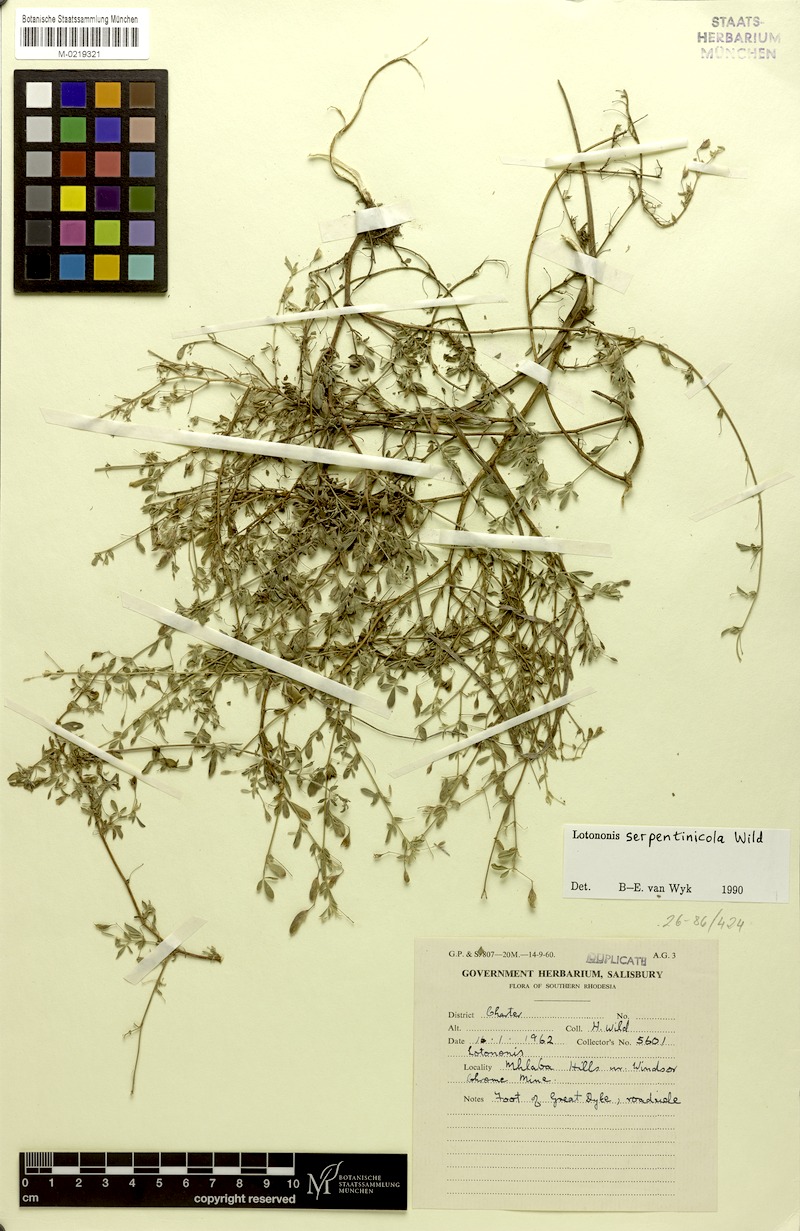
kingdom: Plantae
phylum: Tracheophyta
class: Magnoliopsida
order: Fabales
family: Fabaceae
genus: Lotononis
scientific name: Lotononis serpentinicola
